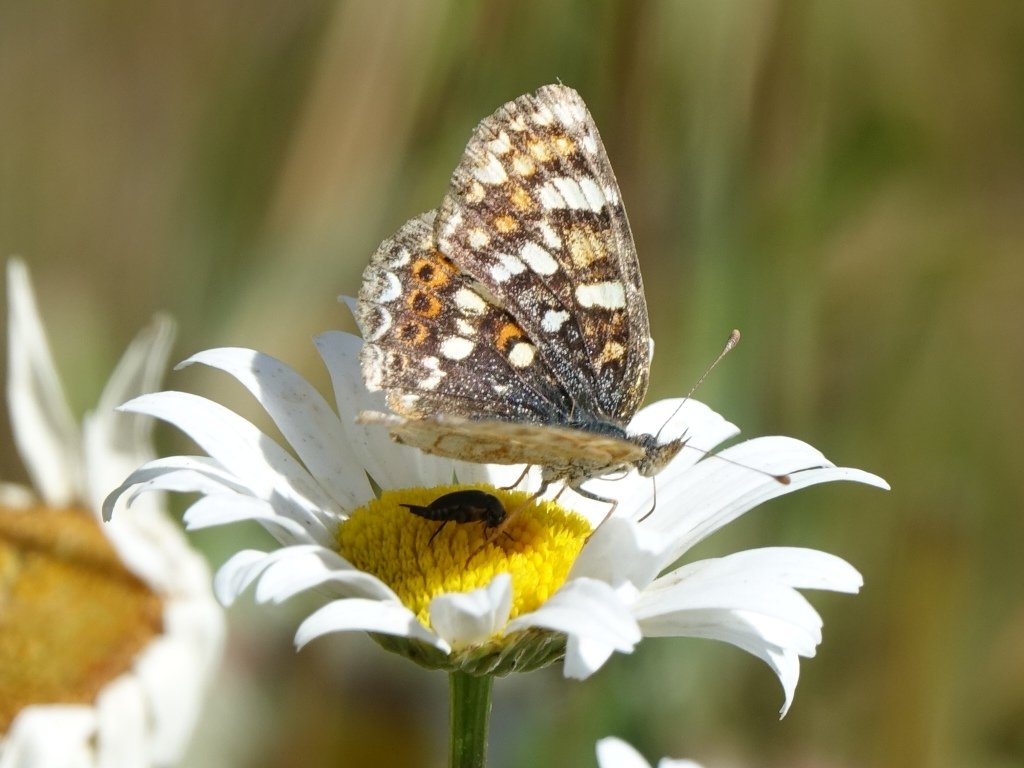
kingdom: Animalia
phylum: Arthropoda
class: Insecta
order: Lepidoptera
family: Nymphalidae
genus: Phyciodes
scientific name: Phyciodes tharos
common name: Field Crescent
